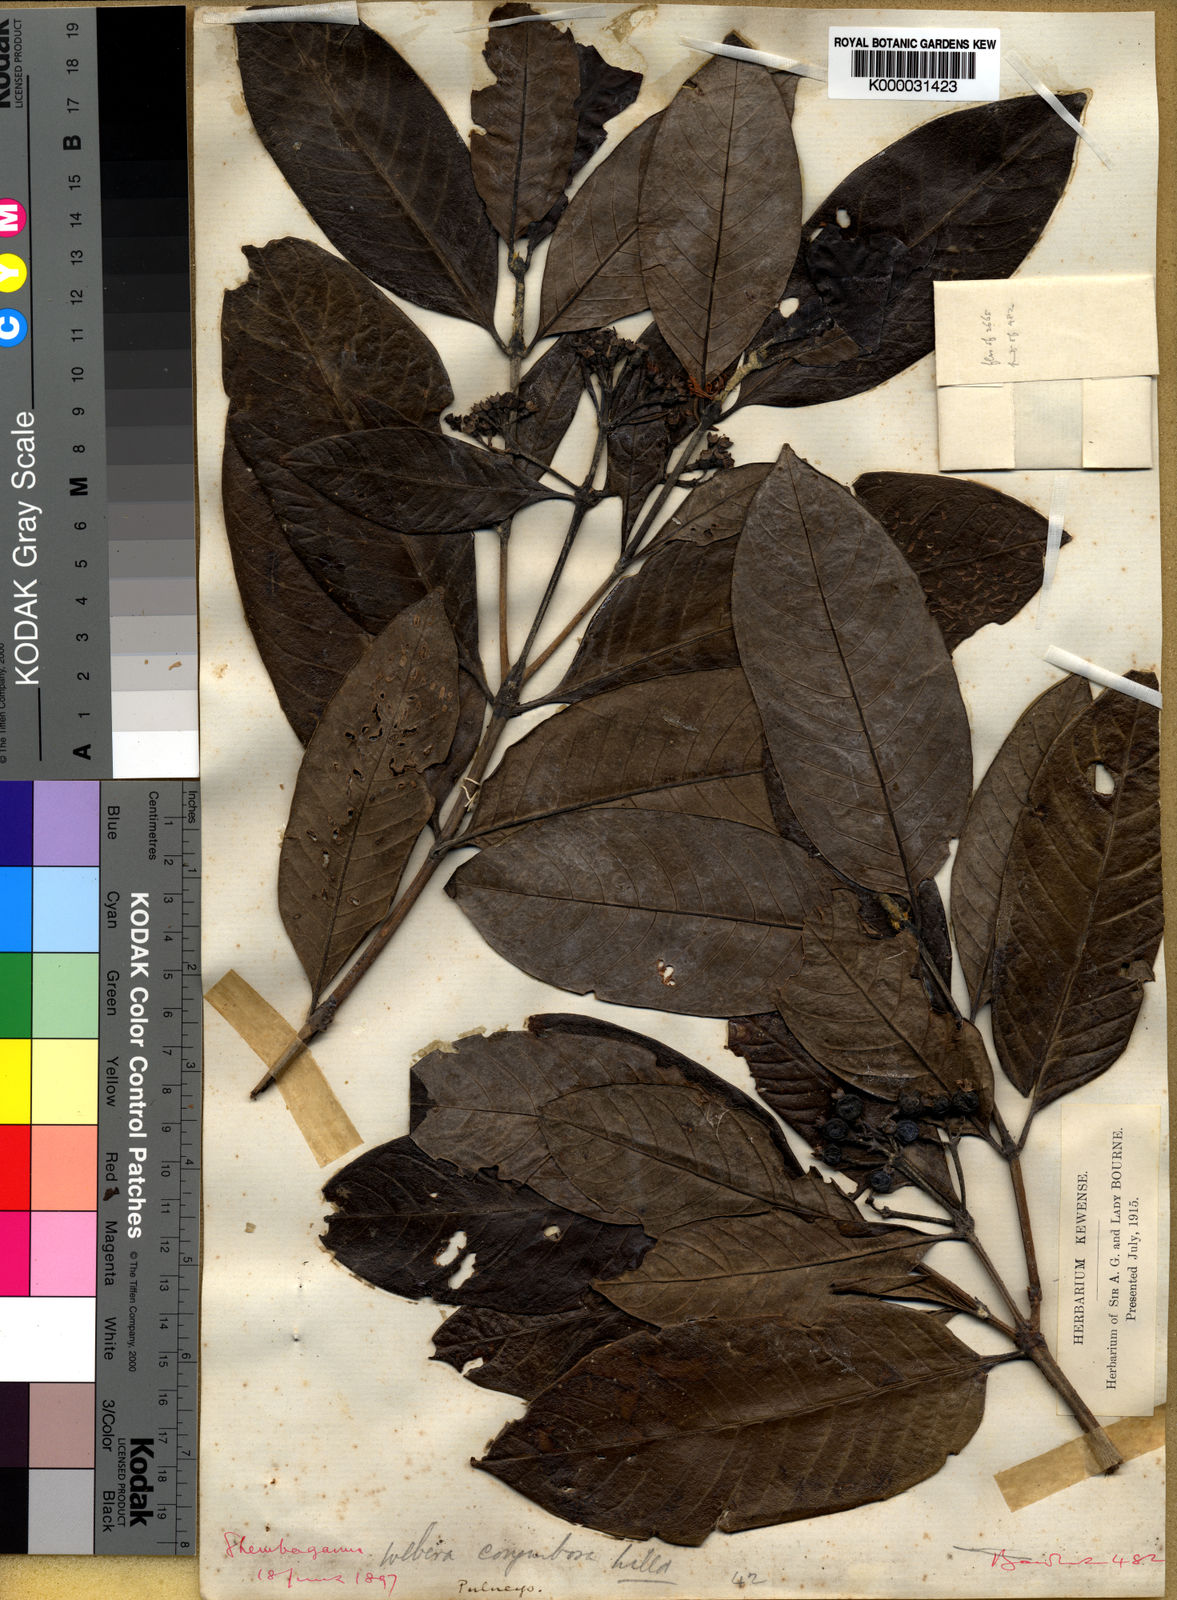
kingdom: Plantae
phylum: Tracheophyta
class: Magnoliopsida
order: Gentianales
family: Rubiaceae
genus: Chomelia
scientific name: Chomelia
